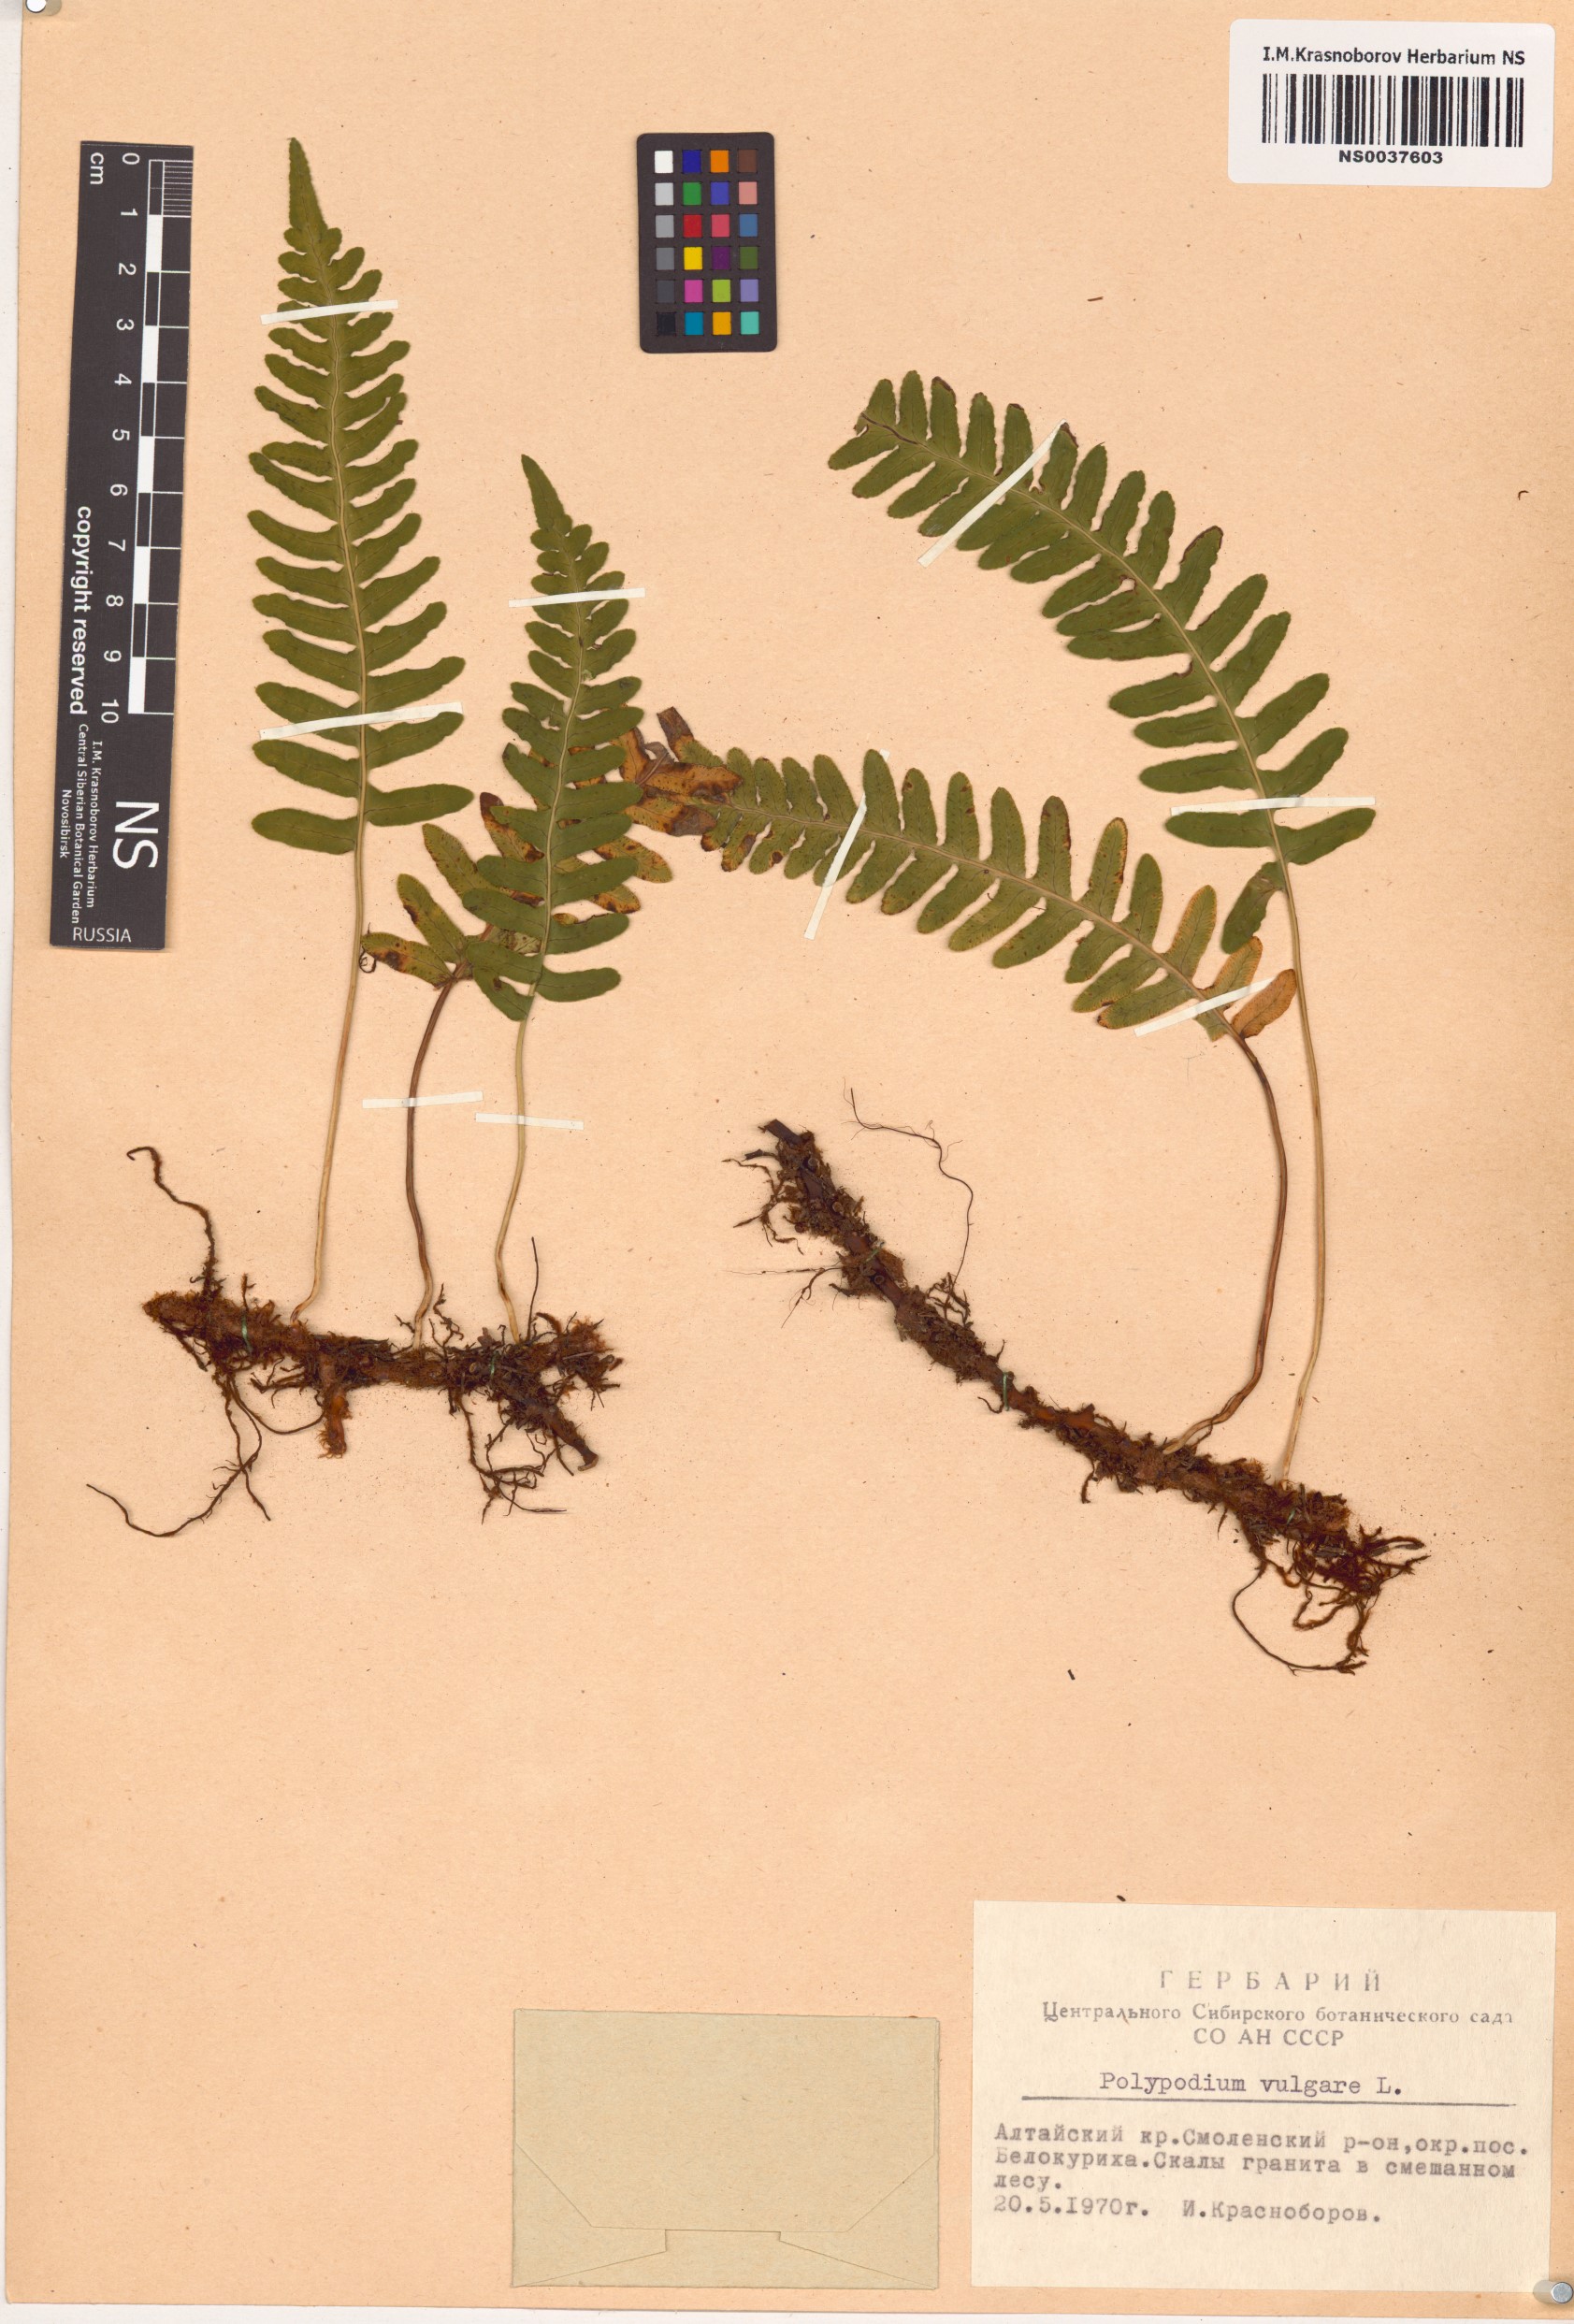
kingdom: Plantae
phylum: Tracheophyta
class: Polypodiopsida
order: Polypodiales
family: Polypodiaceae
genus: Polypodium
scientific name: Polypodium vulgare
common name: Common polypody
